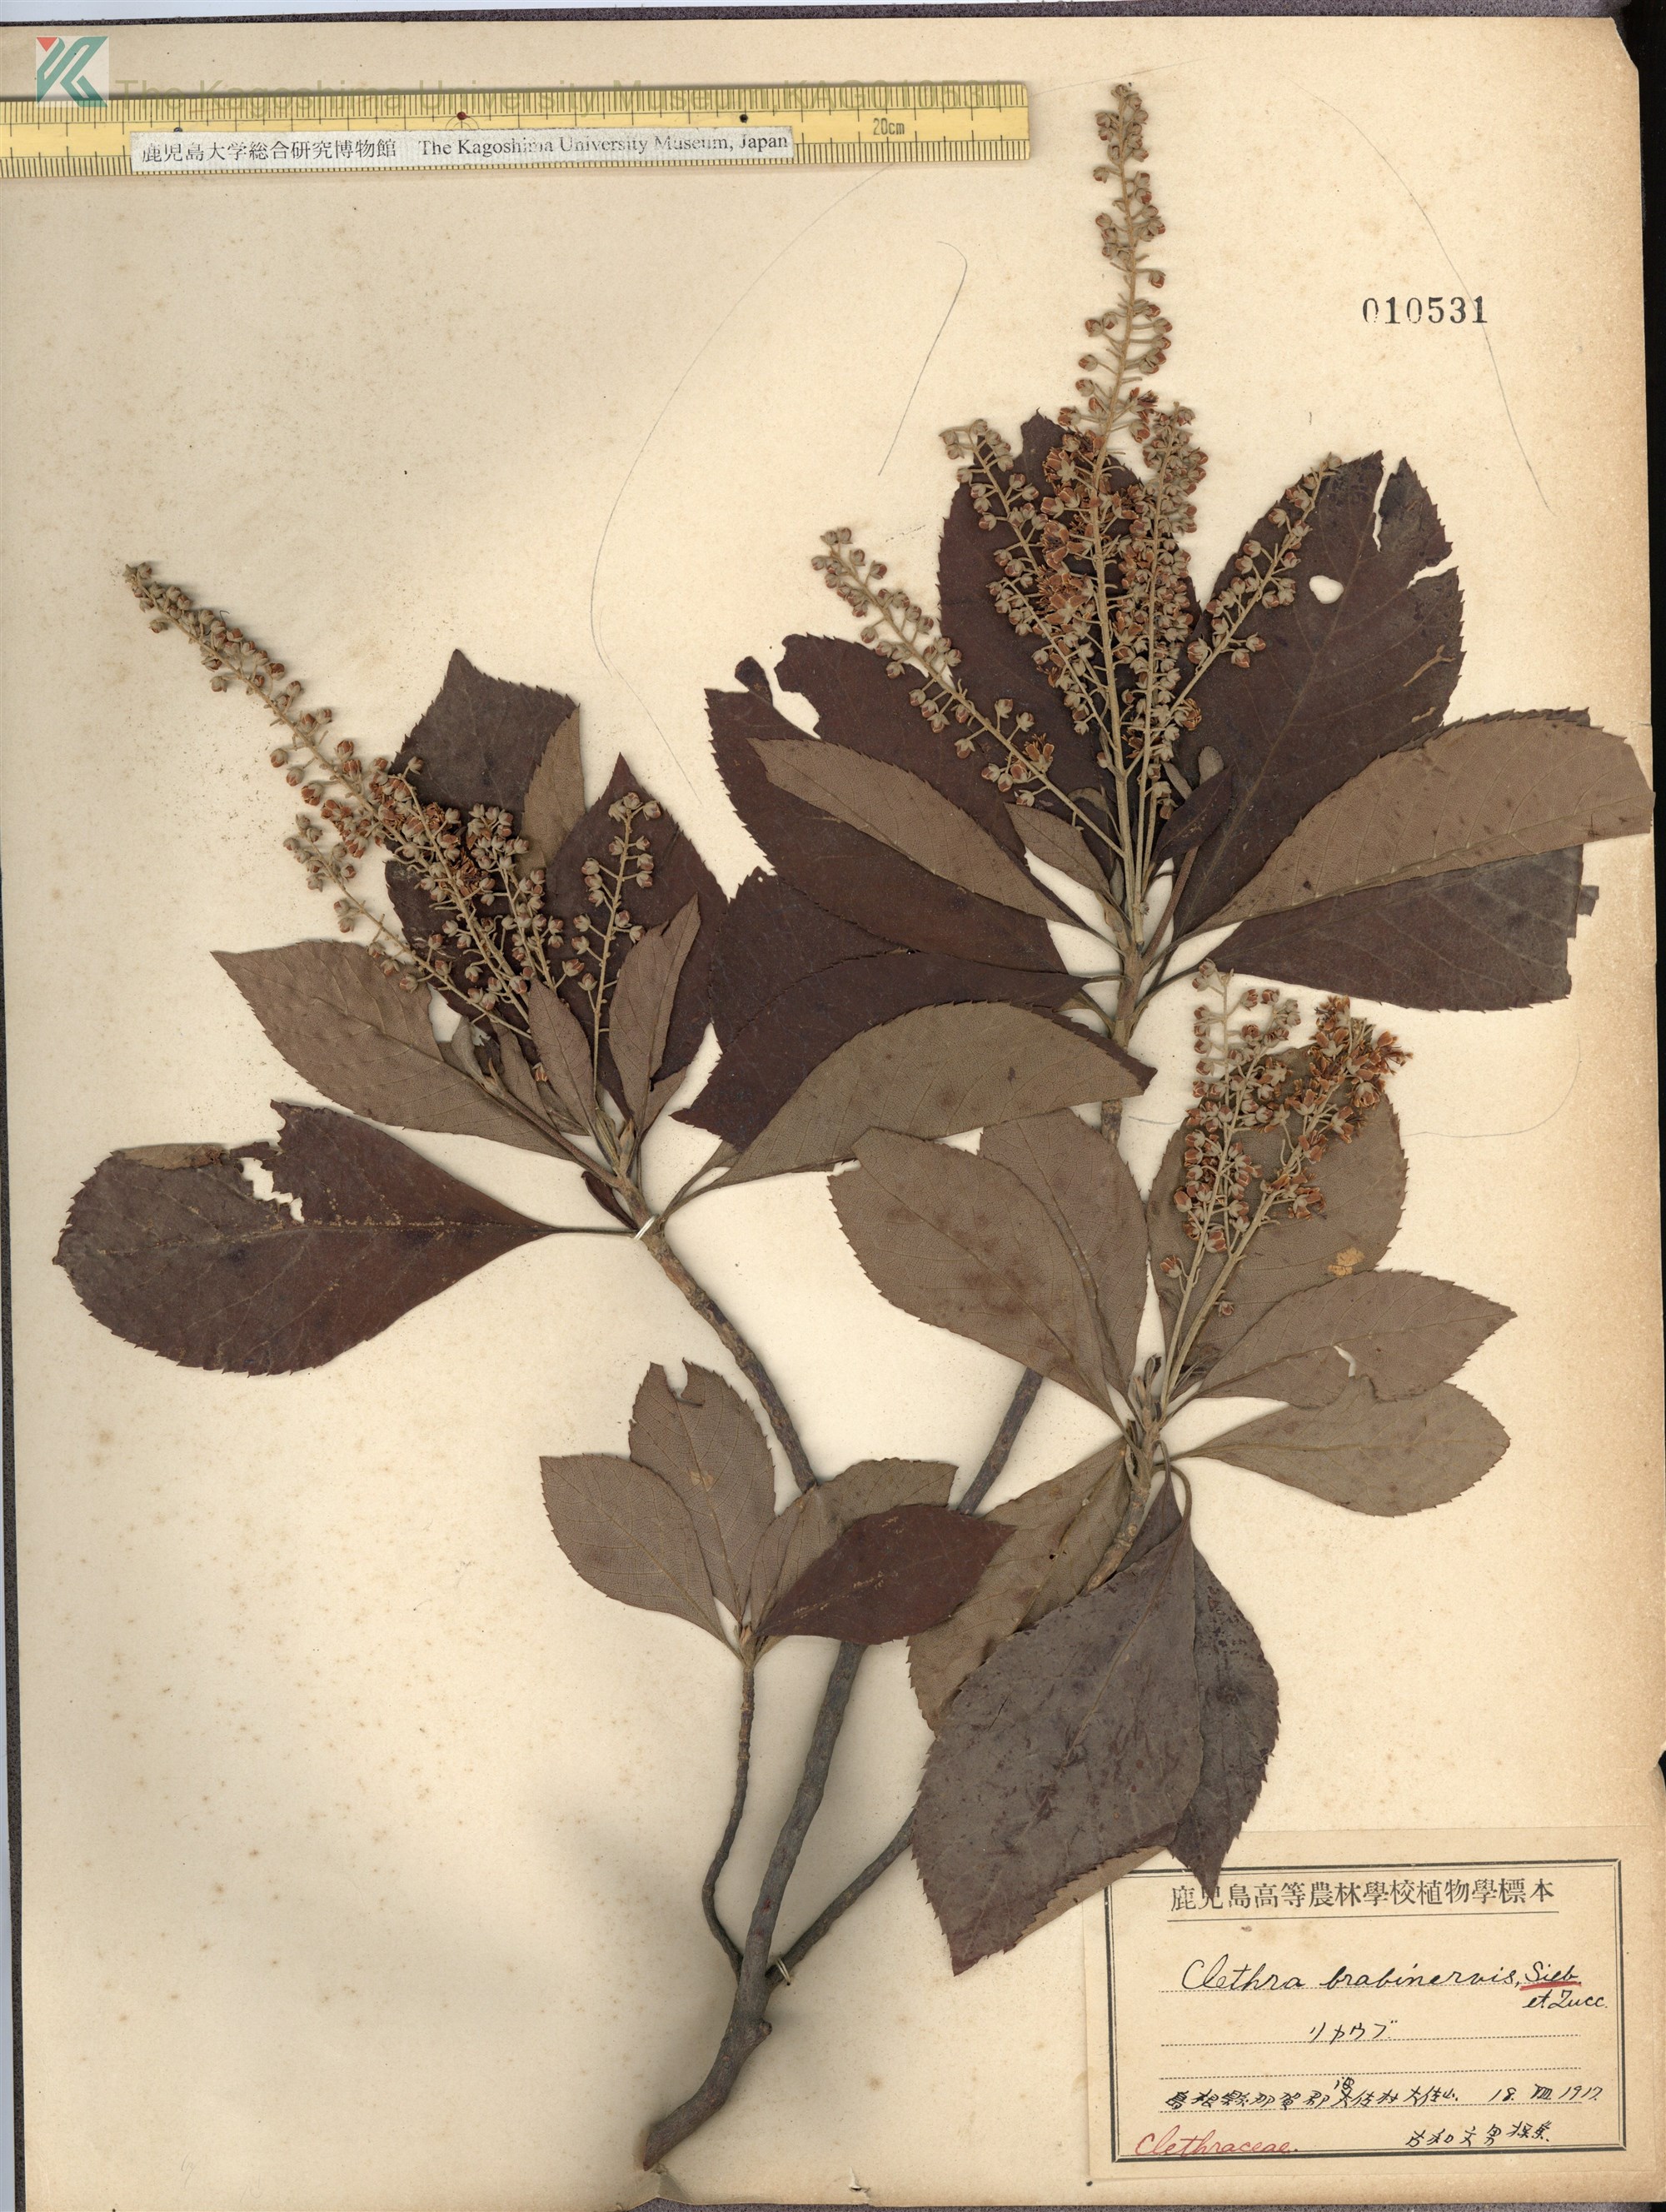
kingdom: Plantae
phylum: Tracheophyta
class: Magnoliopsida
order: Ericales
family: Clethraceae
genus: Clethra
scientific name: Clethra barbinervis
